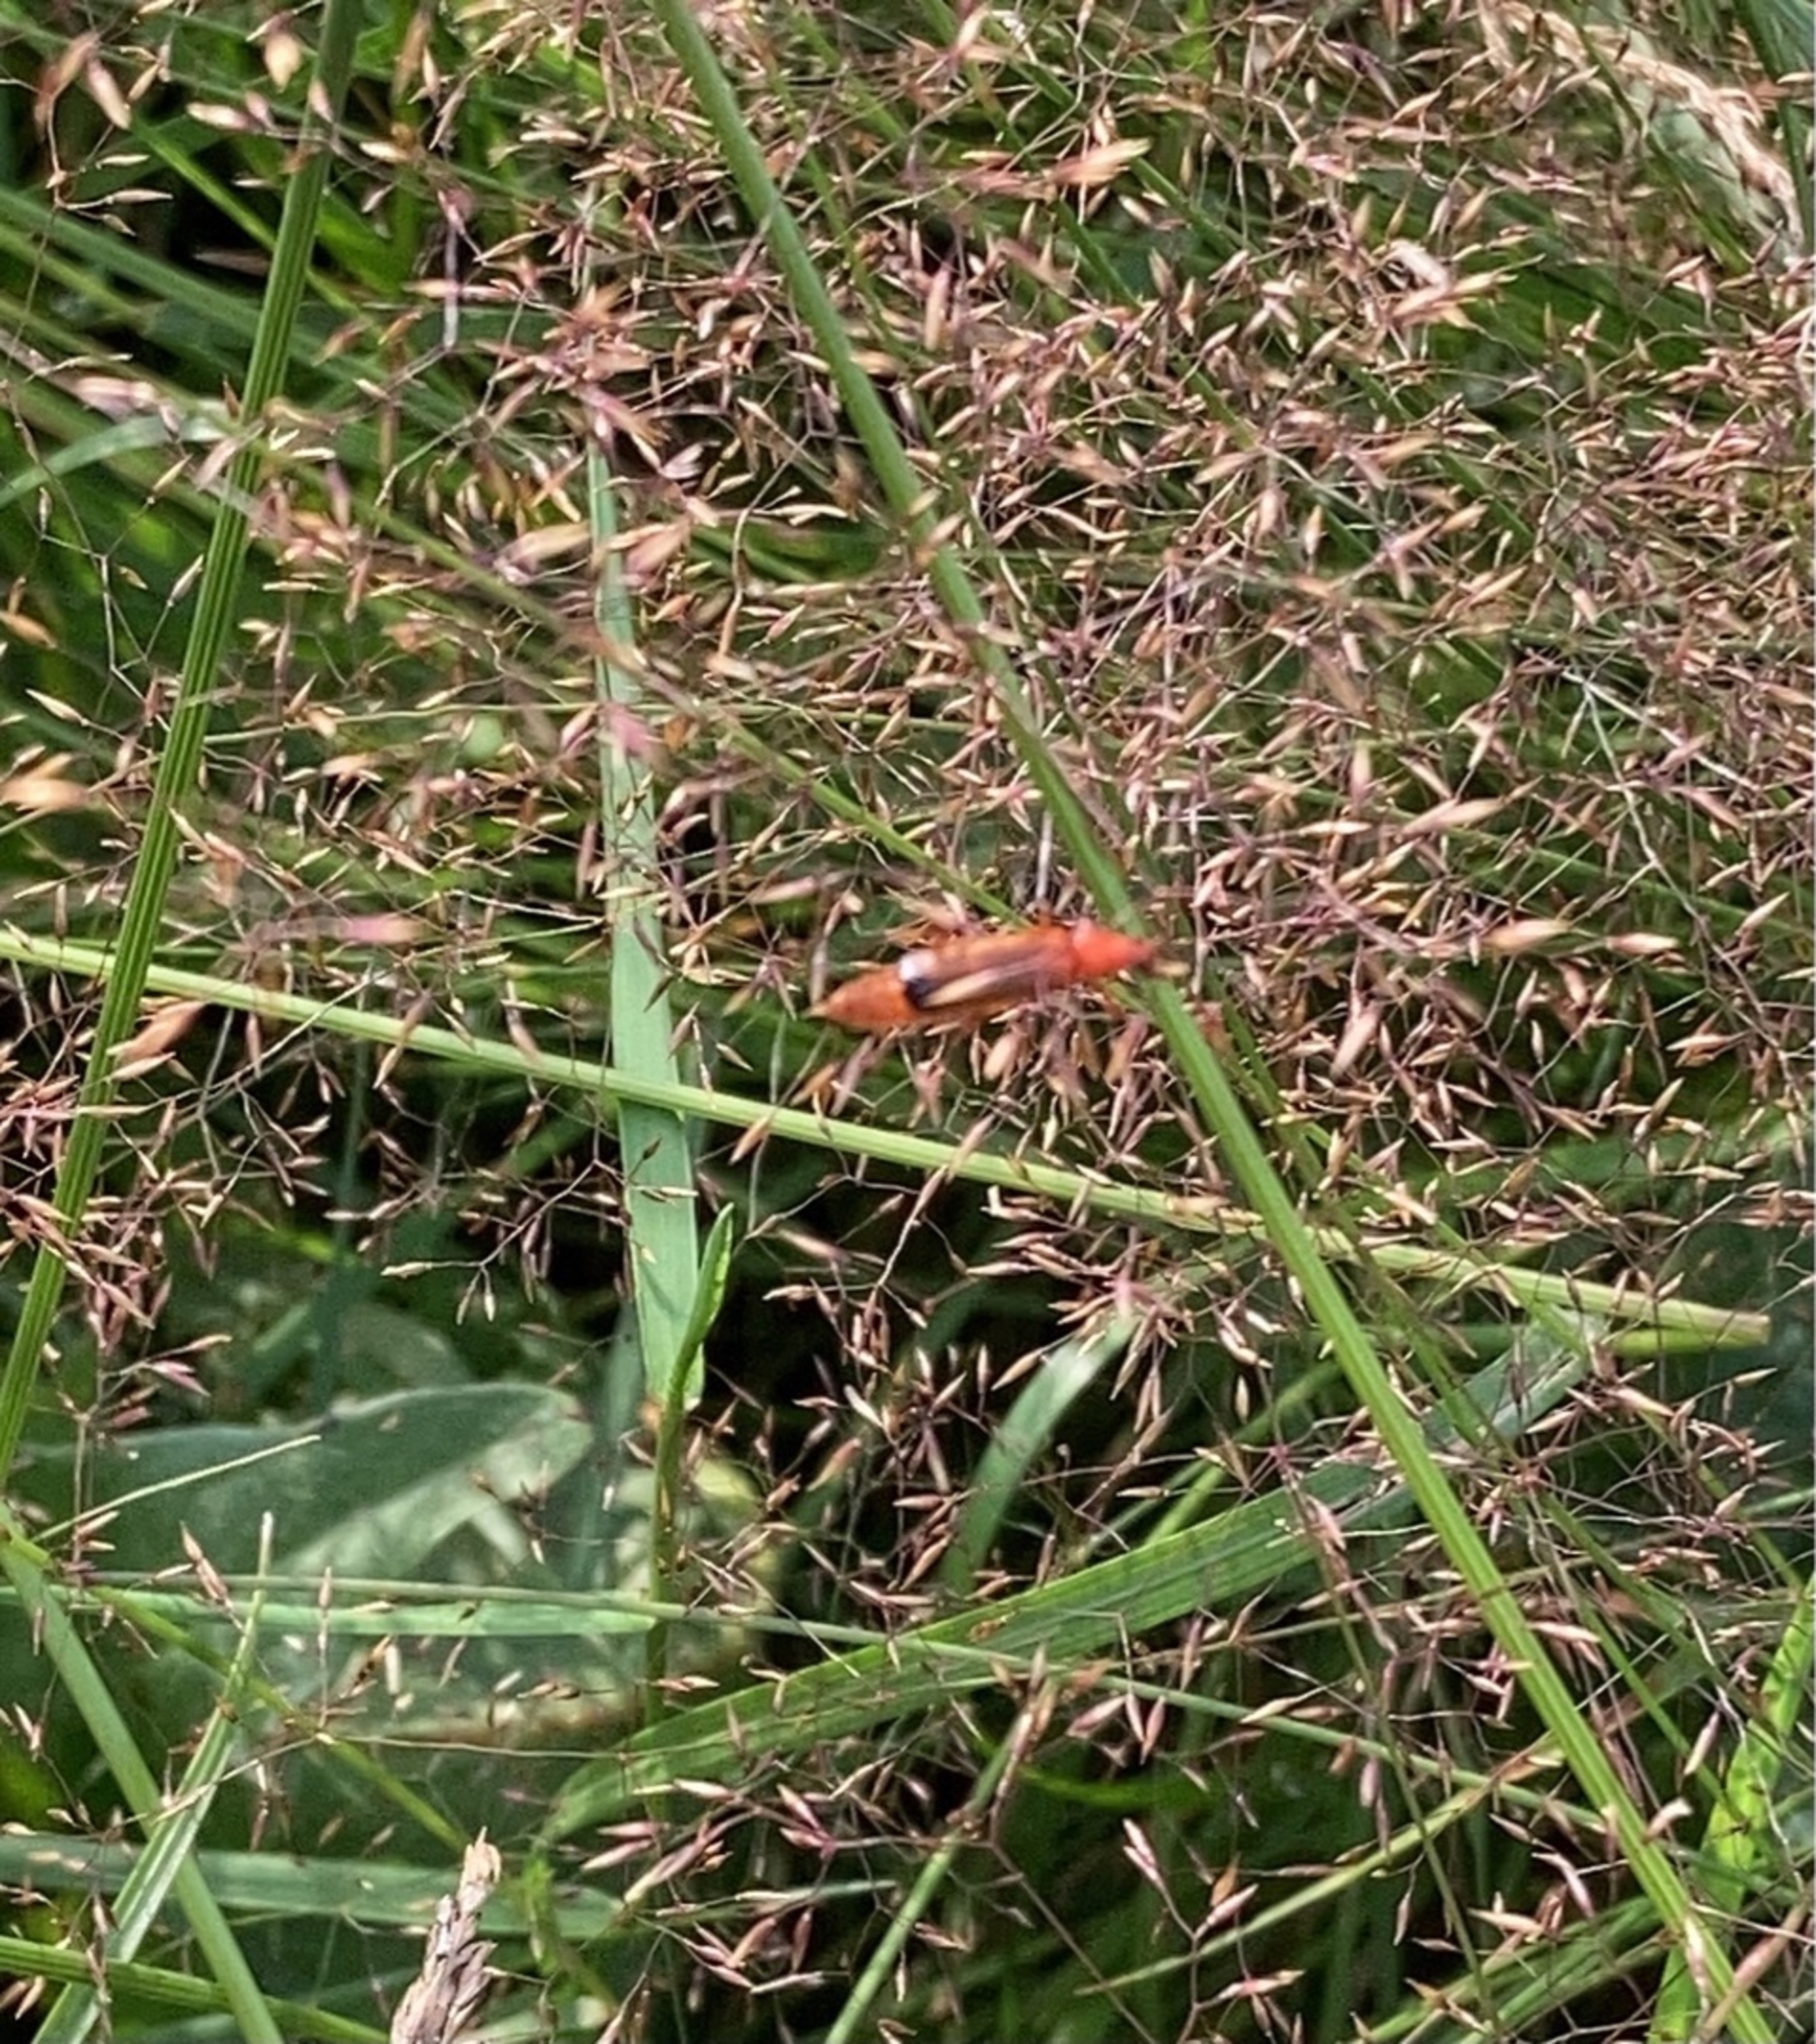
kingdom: Animalia
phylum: Arthropoda
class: Insecta
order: Coleoptera
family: Cantharidae
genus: Rhagonycha
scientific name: Rhagonycha fulva
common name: Præstebille
